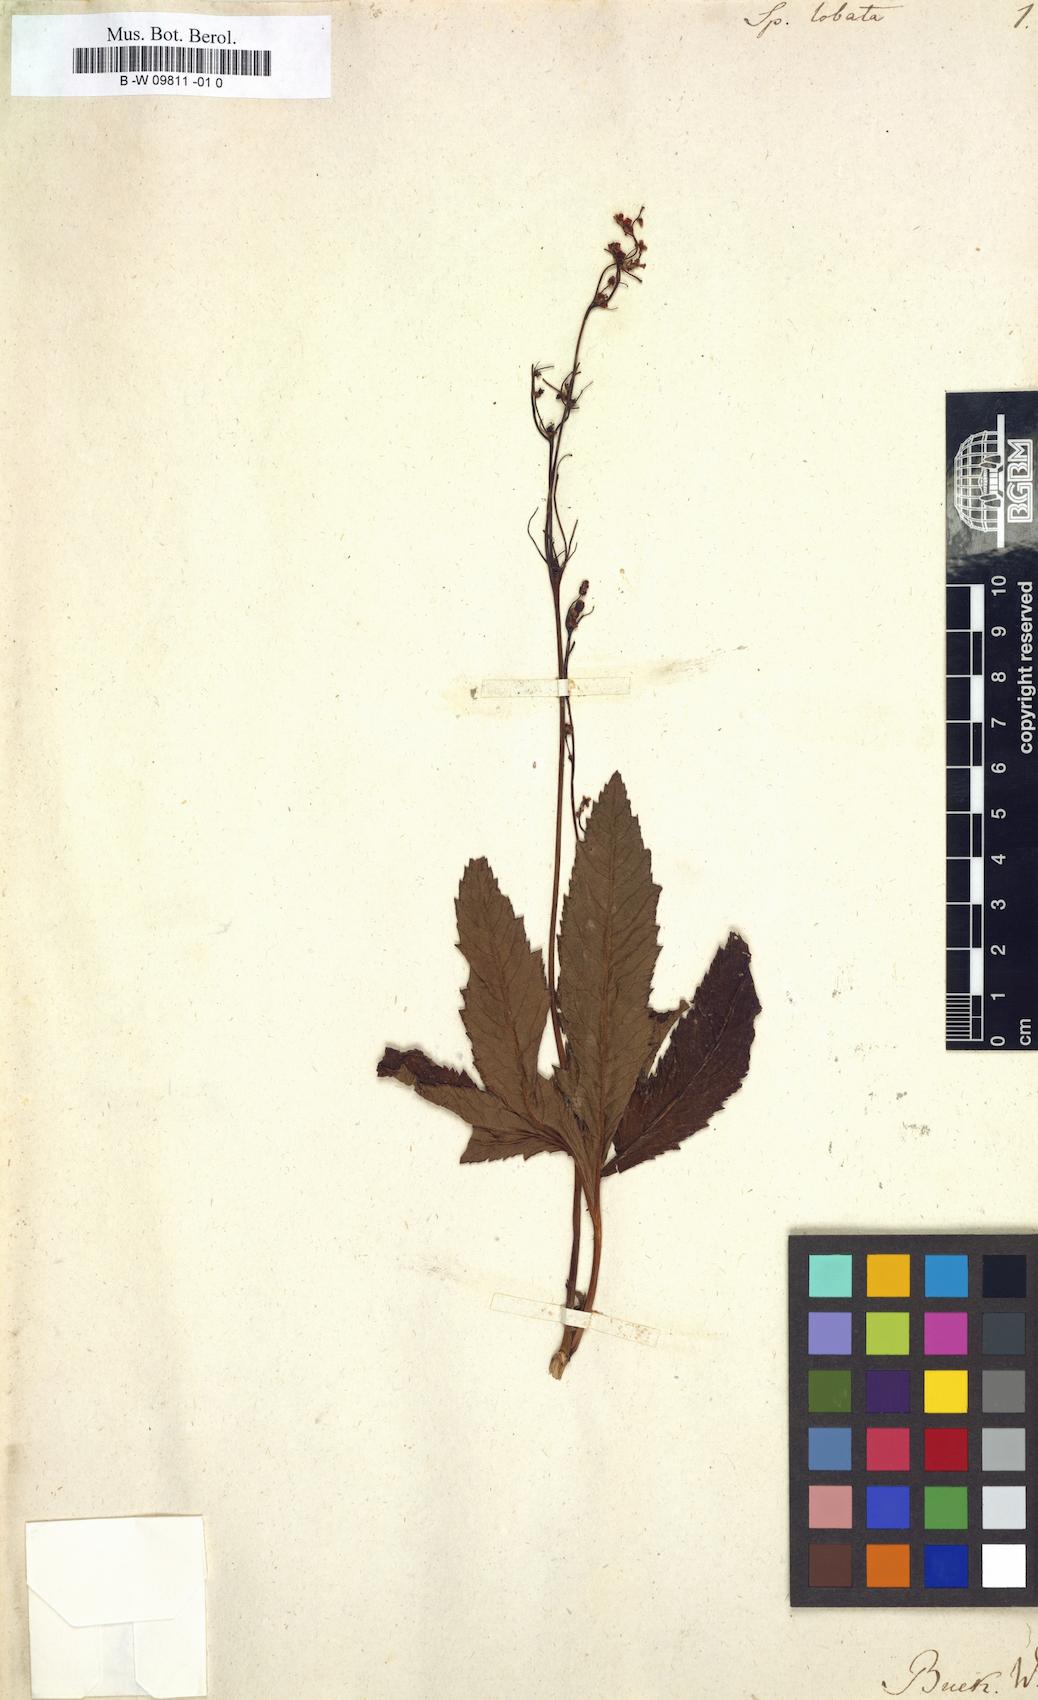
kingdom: Plantae
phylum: Tracheophyta
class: Magnoliopsida
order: Rosales
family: Rosaceae
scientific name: Rosaceae
